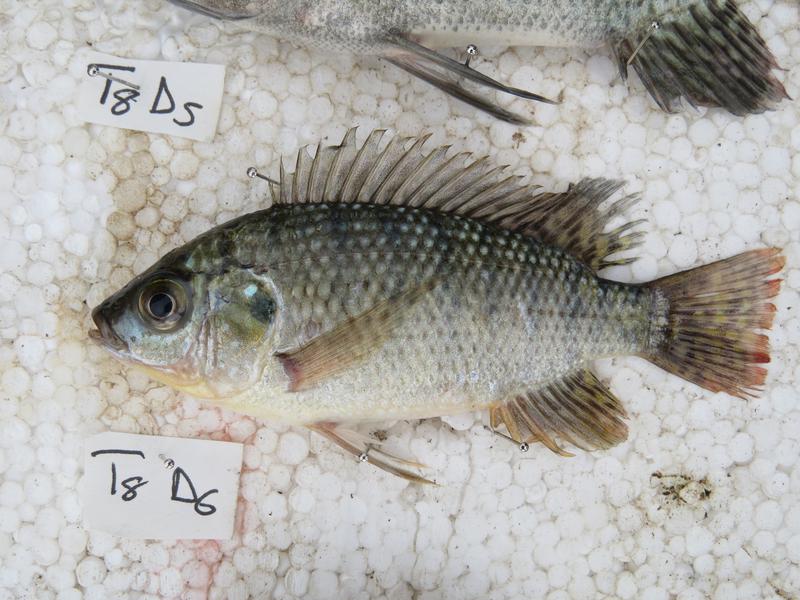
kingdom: Animalia
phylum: Chordata
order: Perciformes
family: Cichlidae
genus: Oreochromis
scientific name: Oreochromis shiranus
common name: Chilwa tilapia
